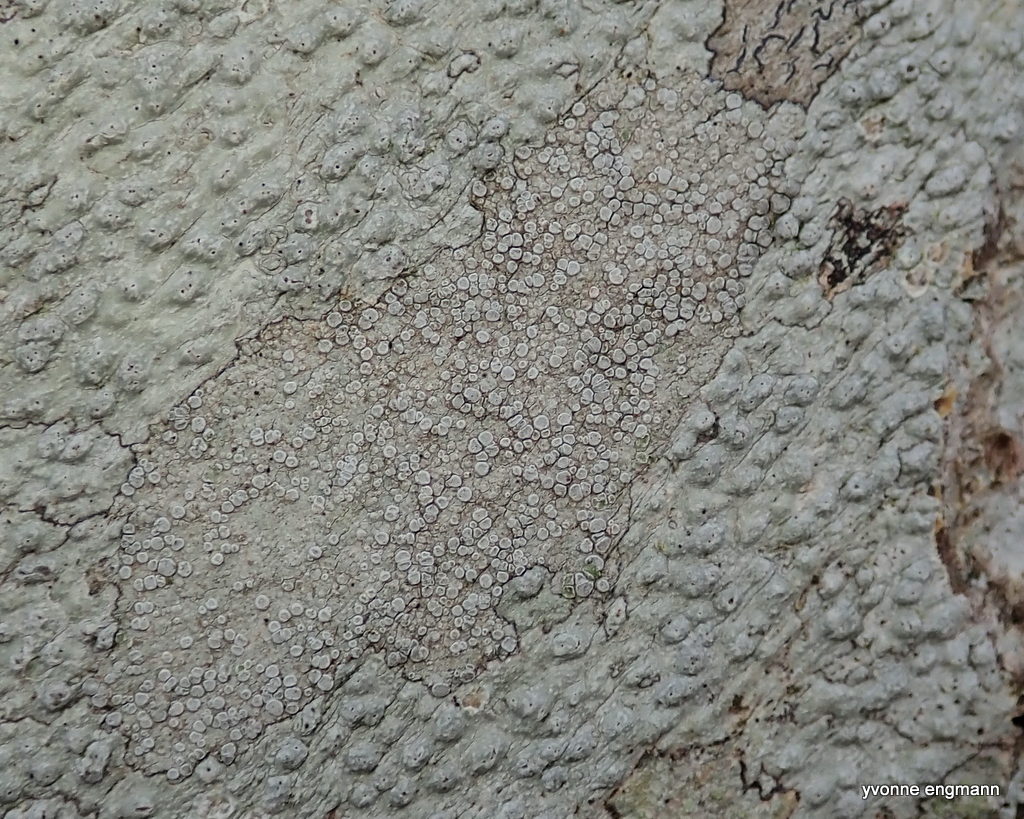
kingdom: Fungi
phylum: Ascomycota
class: Lecanoromycetes
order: Lecanorales
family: Lecanoraceae
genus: Glaucomaria
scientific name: Glaucomaria carpinea
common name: hviddugget kantskivelav
